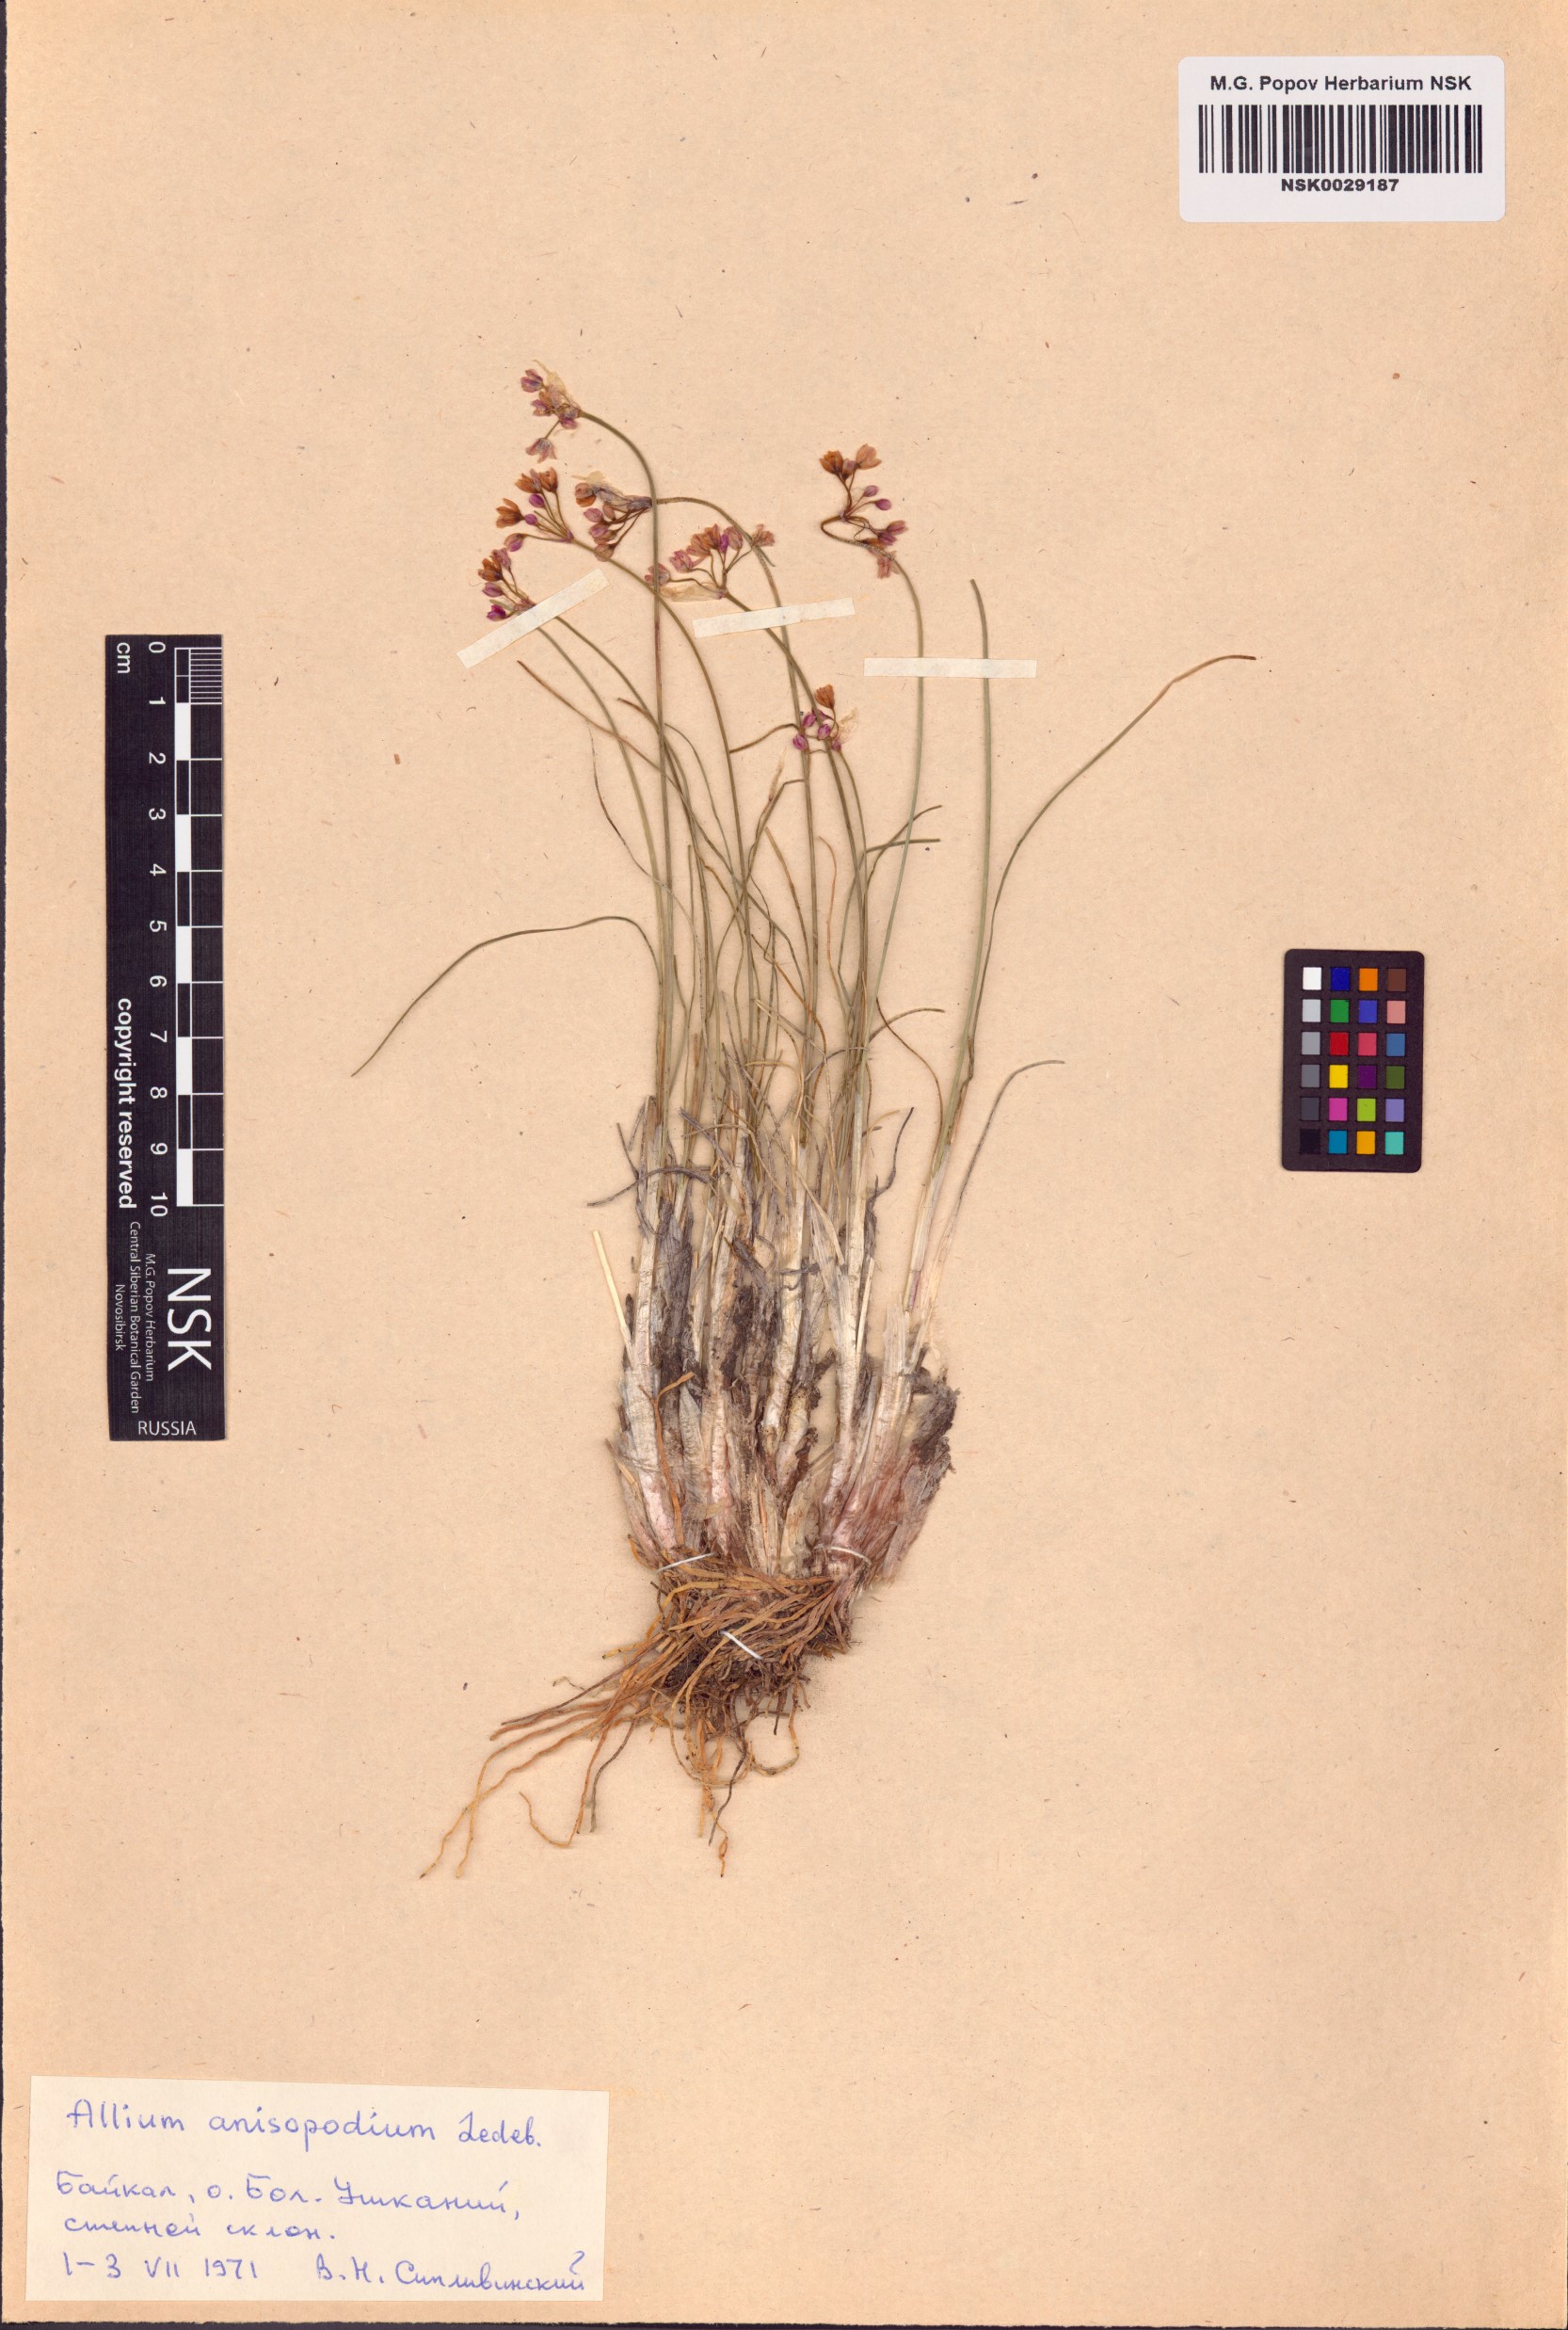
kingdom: Plantae
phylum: Tracheophyta
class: Liliopsida
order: Asparagales
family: Amaryllidaceae
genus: Allium
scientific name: Allium anisopodium
